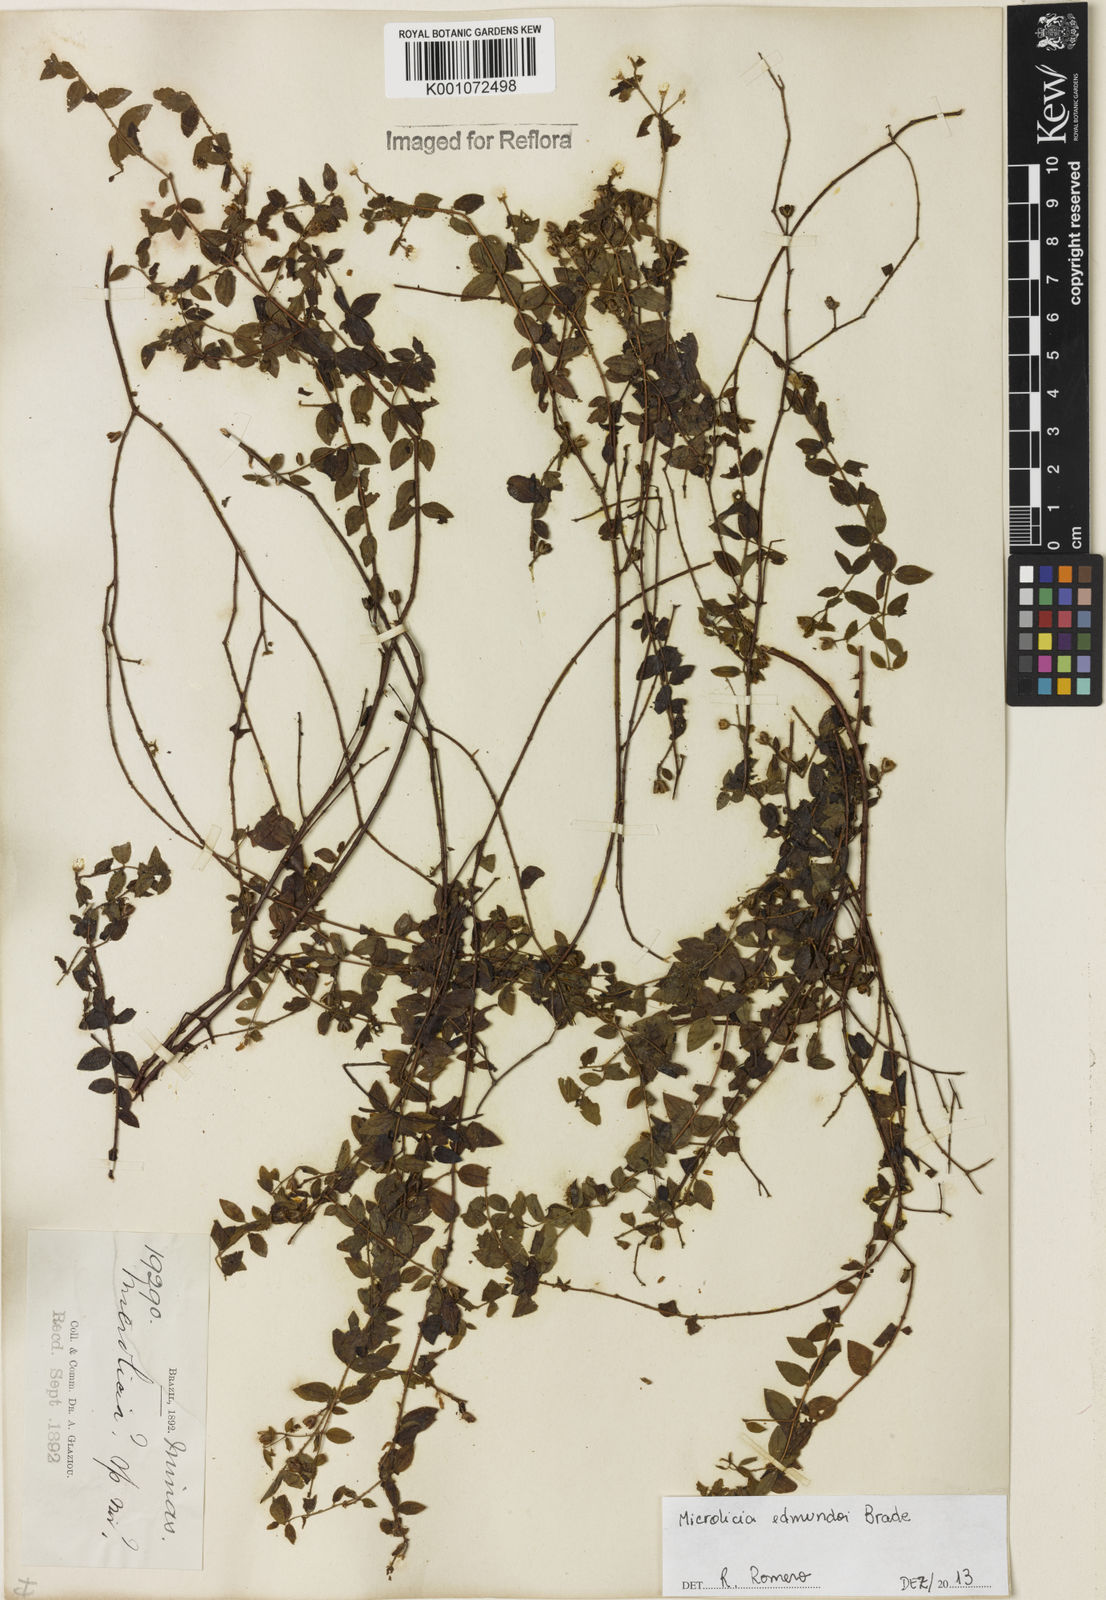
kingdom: Plantae
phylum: Tracheophyta
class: Magnoliopsida
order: Myrtales
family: Melastomataceae
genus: Microlicia
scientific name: Microlicia edmundoi
